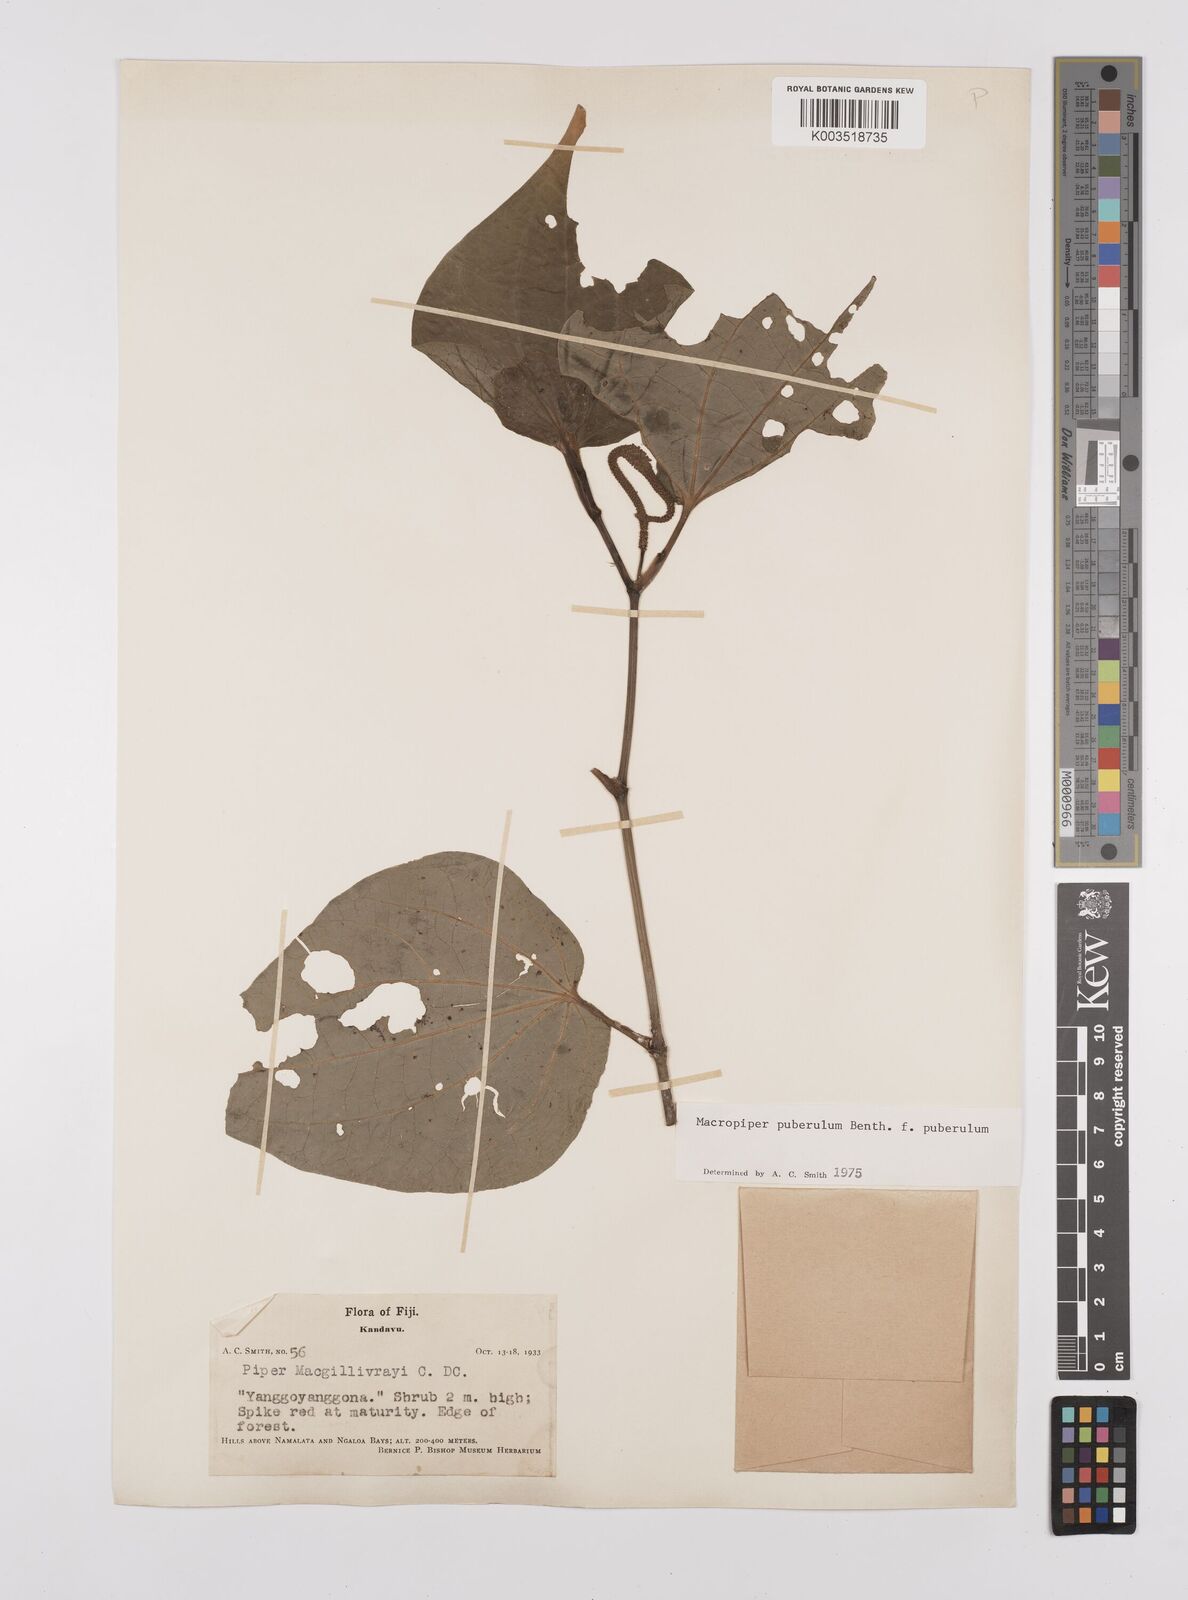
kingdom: Plantae
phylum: Tracheophyta
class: Magnoliopsida
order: Piperales
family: Piperaceae
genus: Macropiper
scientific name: Macropiper puberulum
